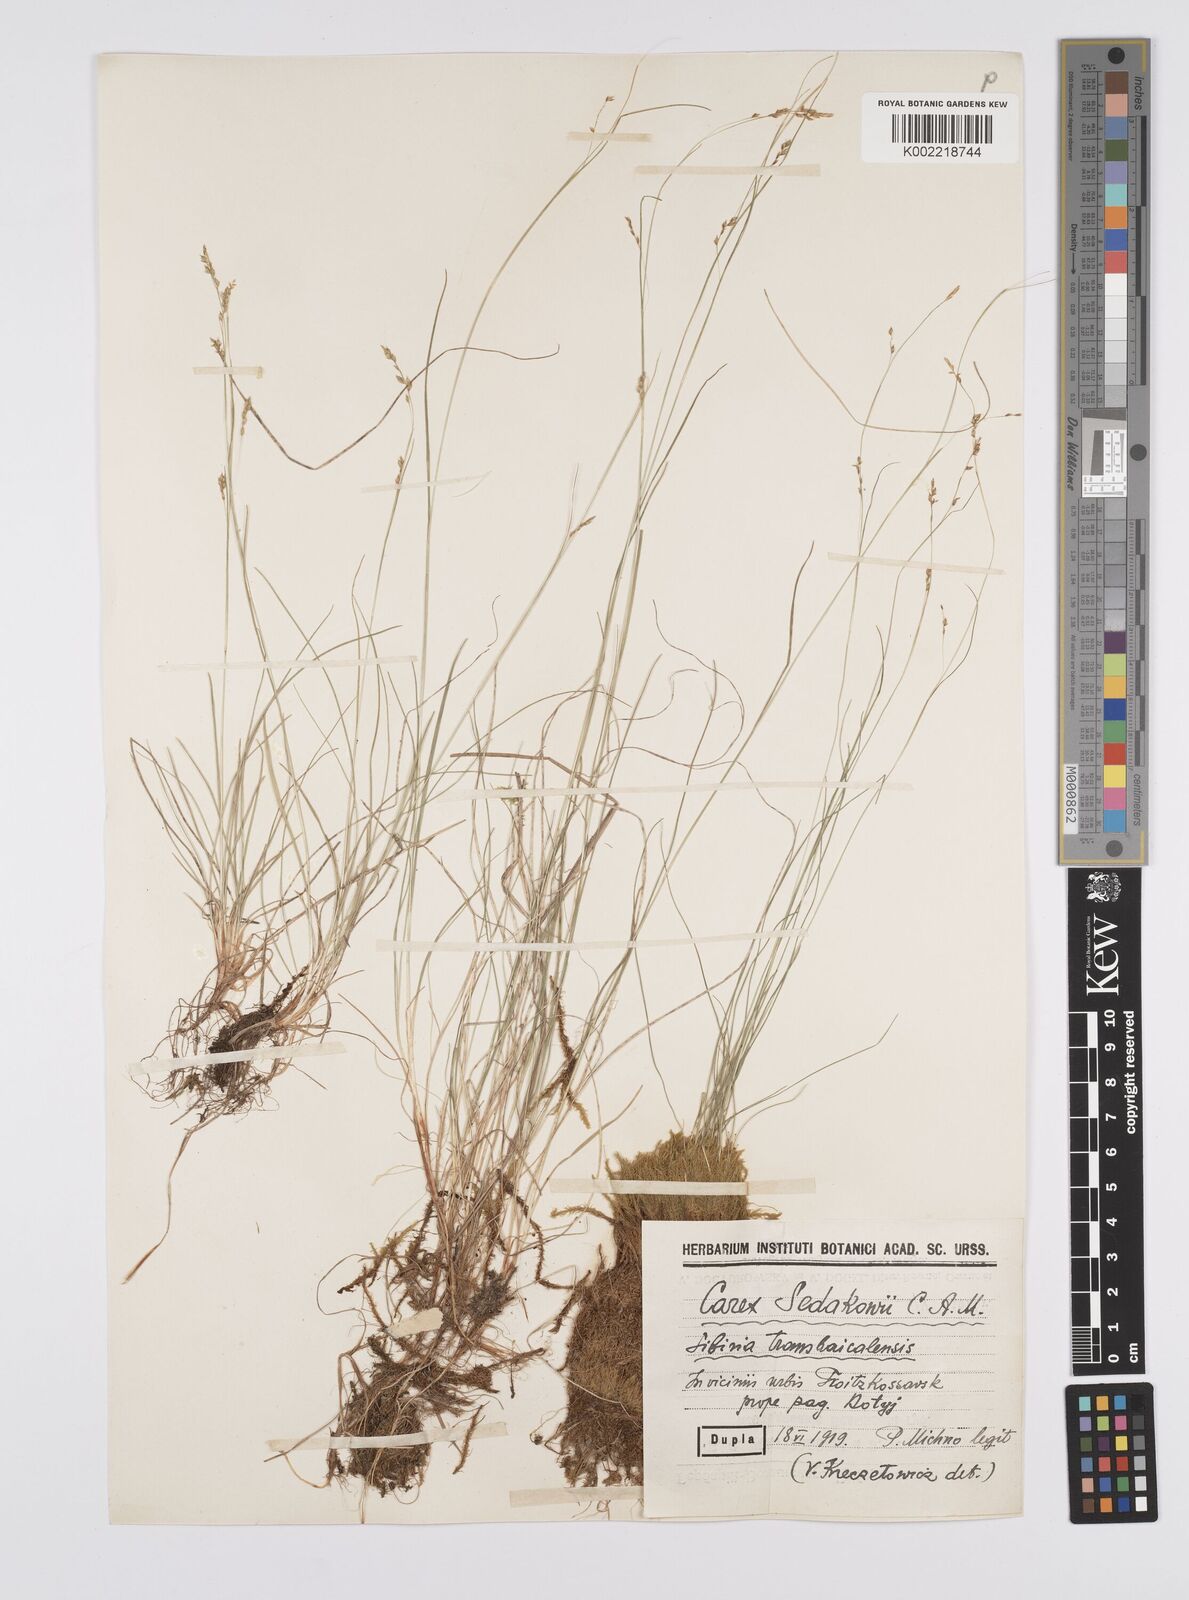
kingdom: Plantae
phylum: Tracheophyta
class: Liliopsida
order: Poales
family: Cyperaceae
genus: Carex
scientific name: Carex sedakowii
